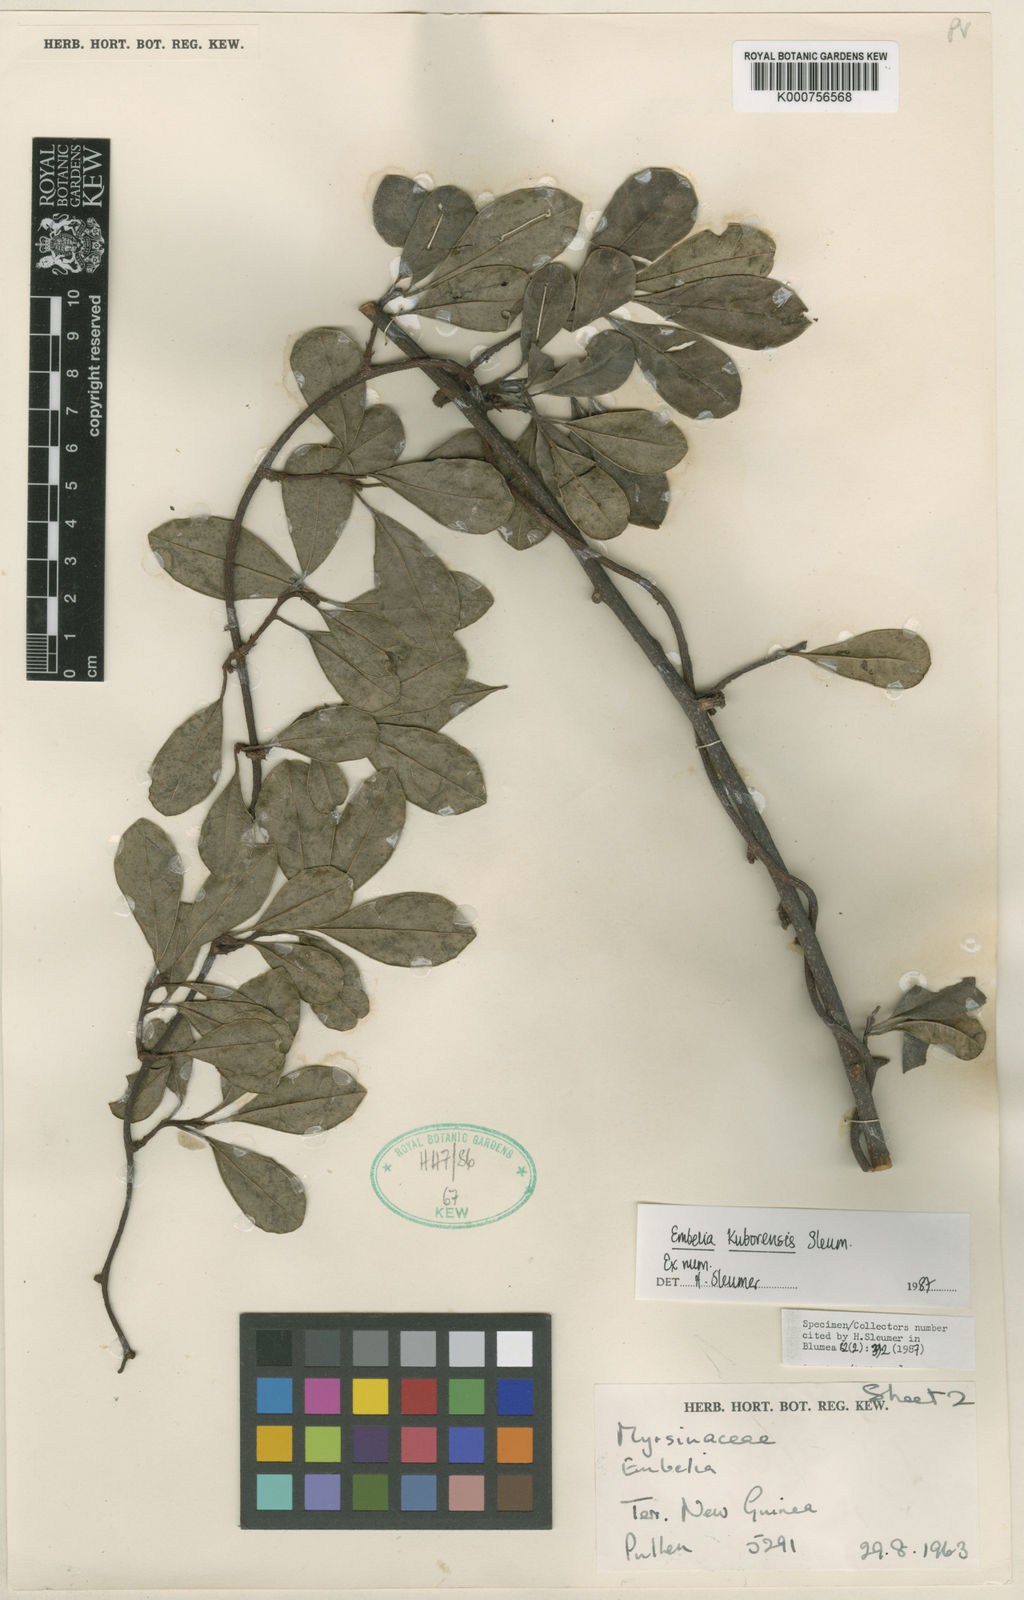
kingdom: Plantae
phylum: Tracheophyta
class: Magnoliopsida
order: Ericales
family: Primulaceae
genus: Embelia
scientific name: Embelia kuborensis
